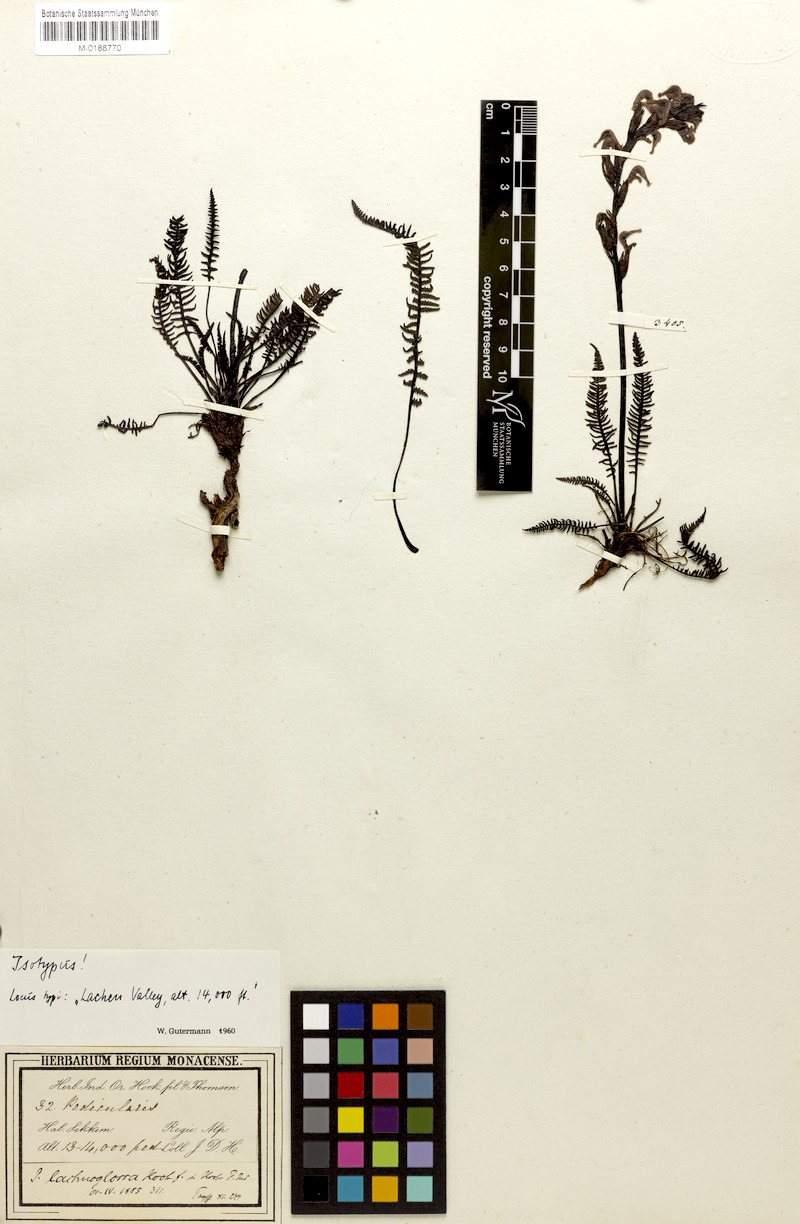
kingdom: Plantae
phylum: Tracheophyta
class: Magnoliopsida
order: Lamiales
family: Orobanchaceae
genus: Pedicularis
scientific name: Pedicularis lachnoglossa
